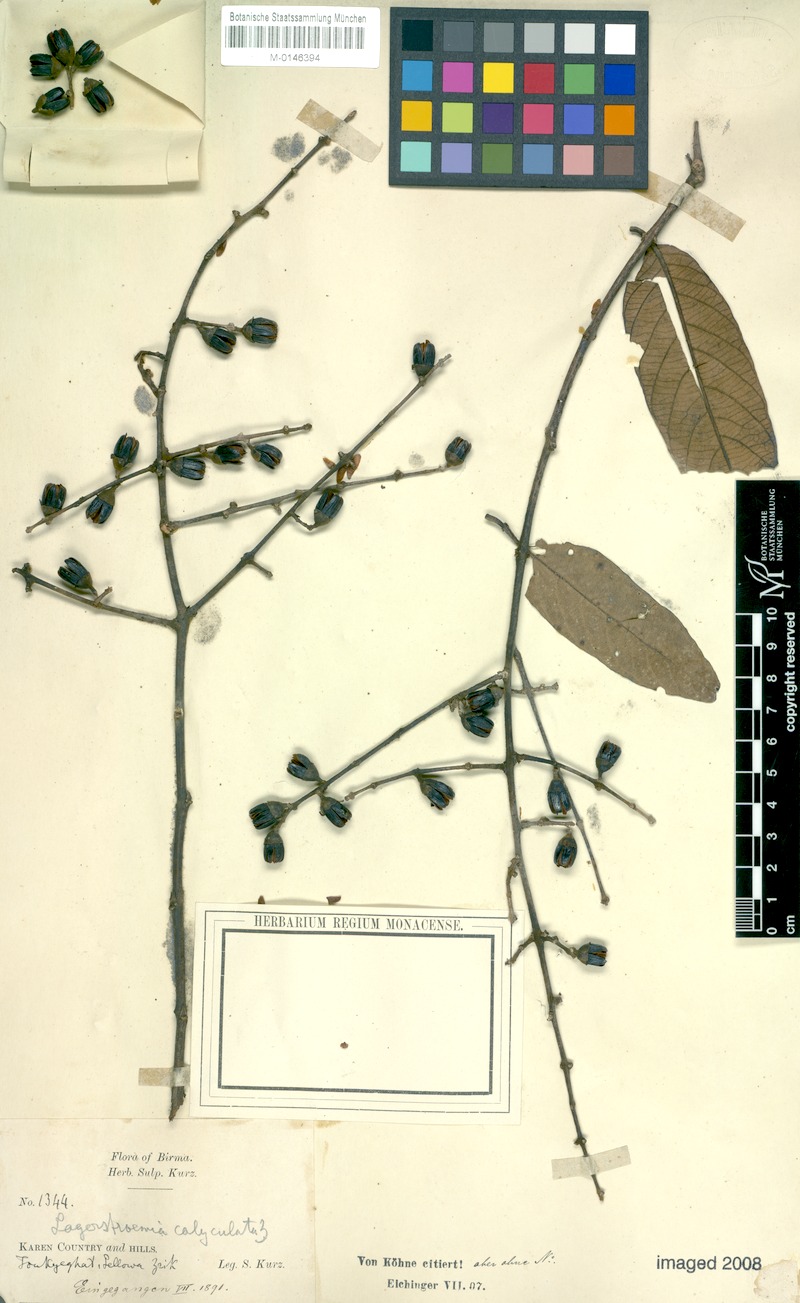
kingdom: Plantae
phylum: Tracheophyta
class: Magnoliopsida
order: Myrtales
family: Lythraceae
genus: Lagerstroemia
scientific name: Lagerstroemia calyculata
